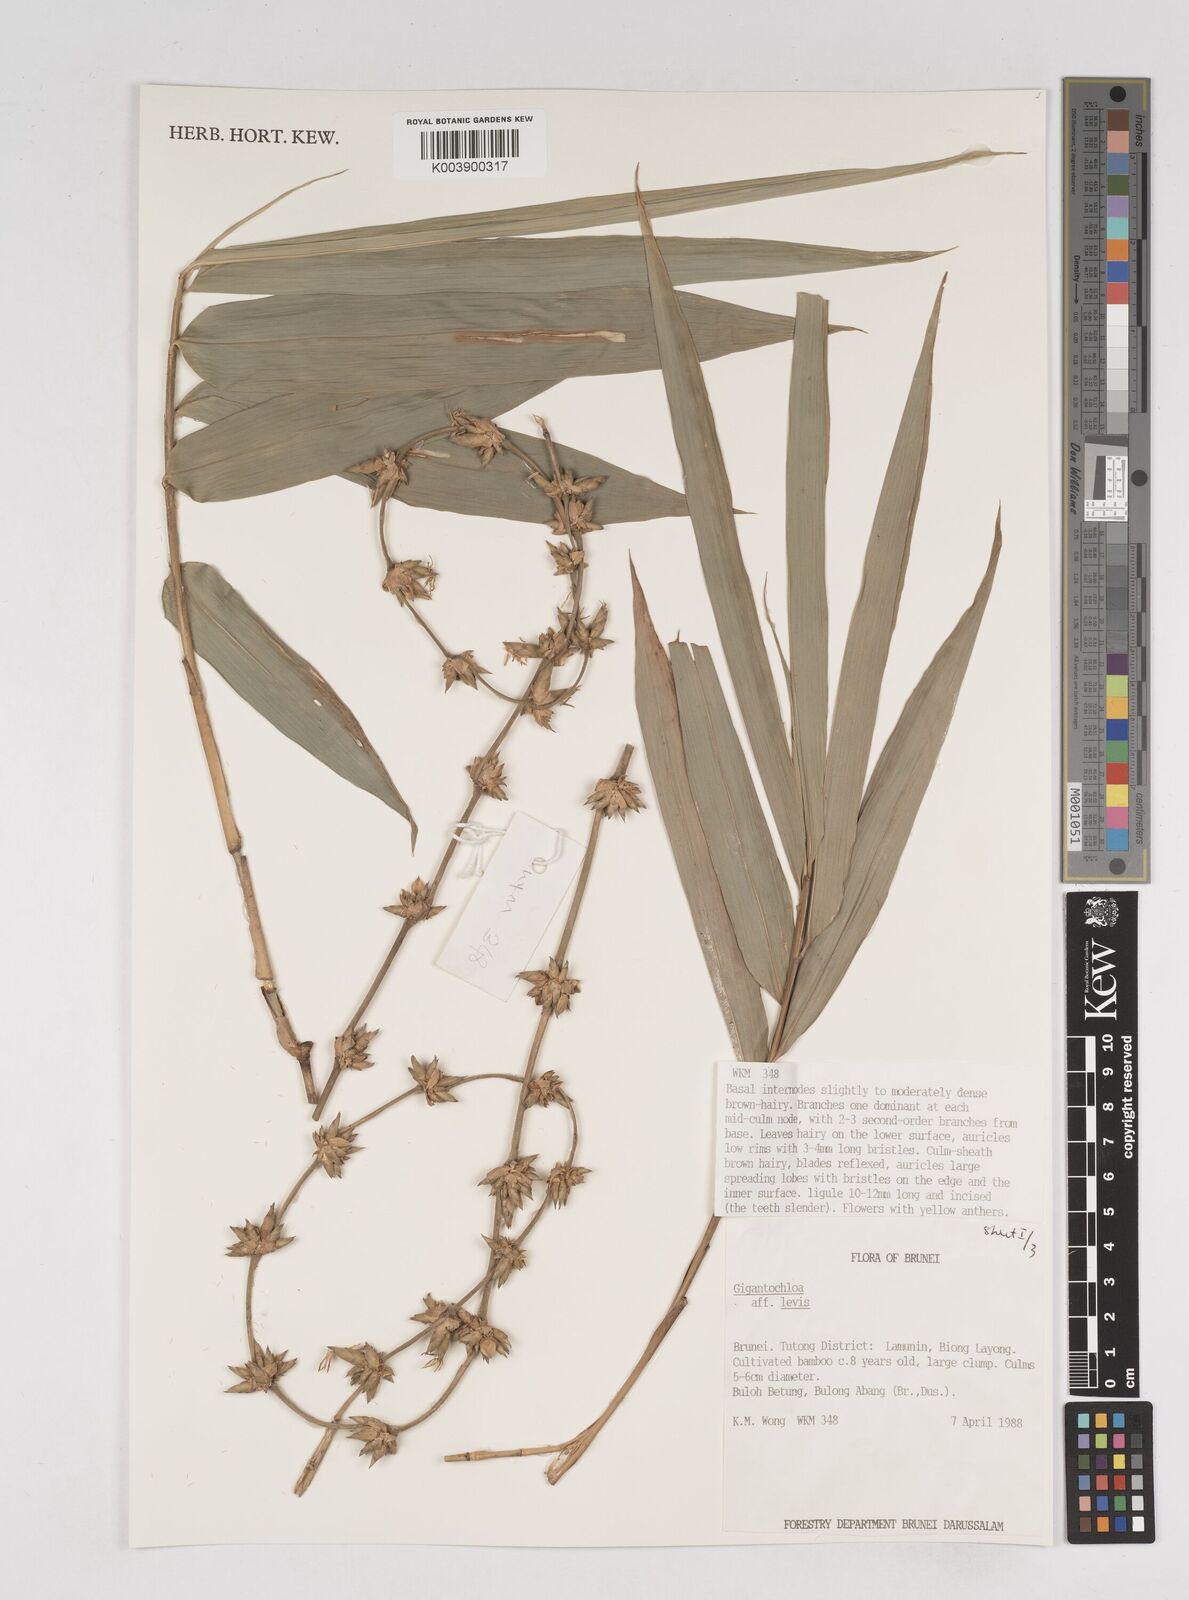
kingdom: Plantae
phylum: Tracheophyta
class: Liliopsida
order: Poales
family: Poaceae
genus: Gigantochloa
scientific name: Gigantochloa levis
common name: Smooth-shoot gigantochloa
